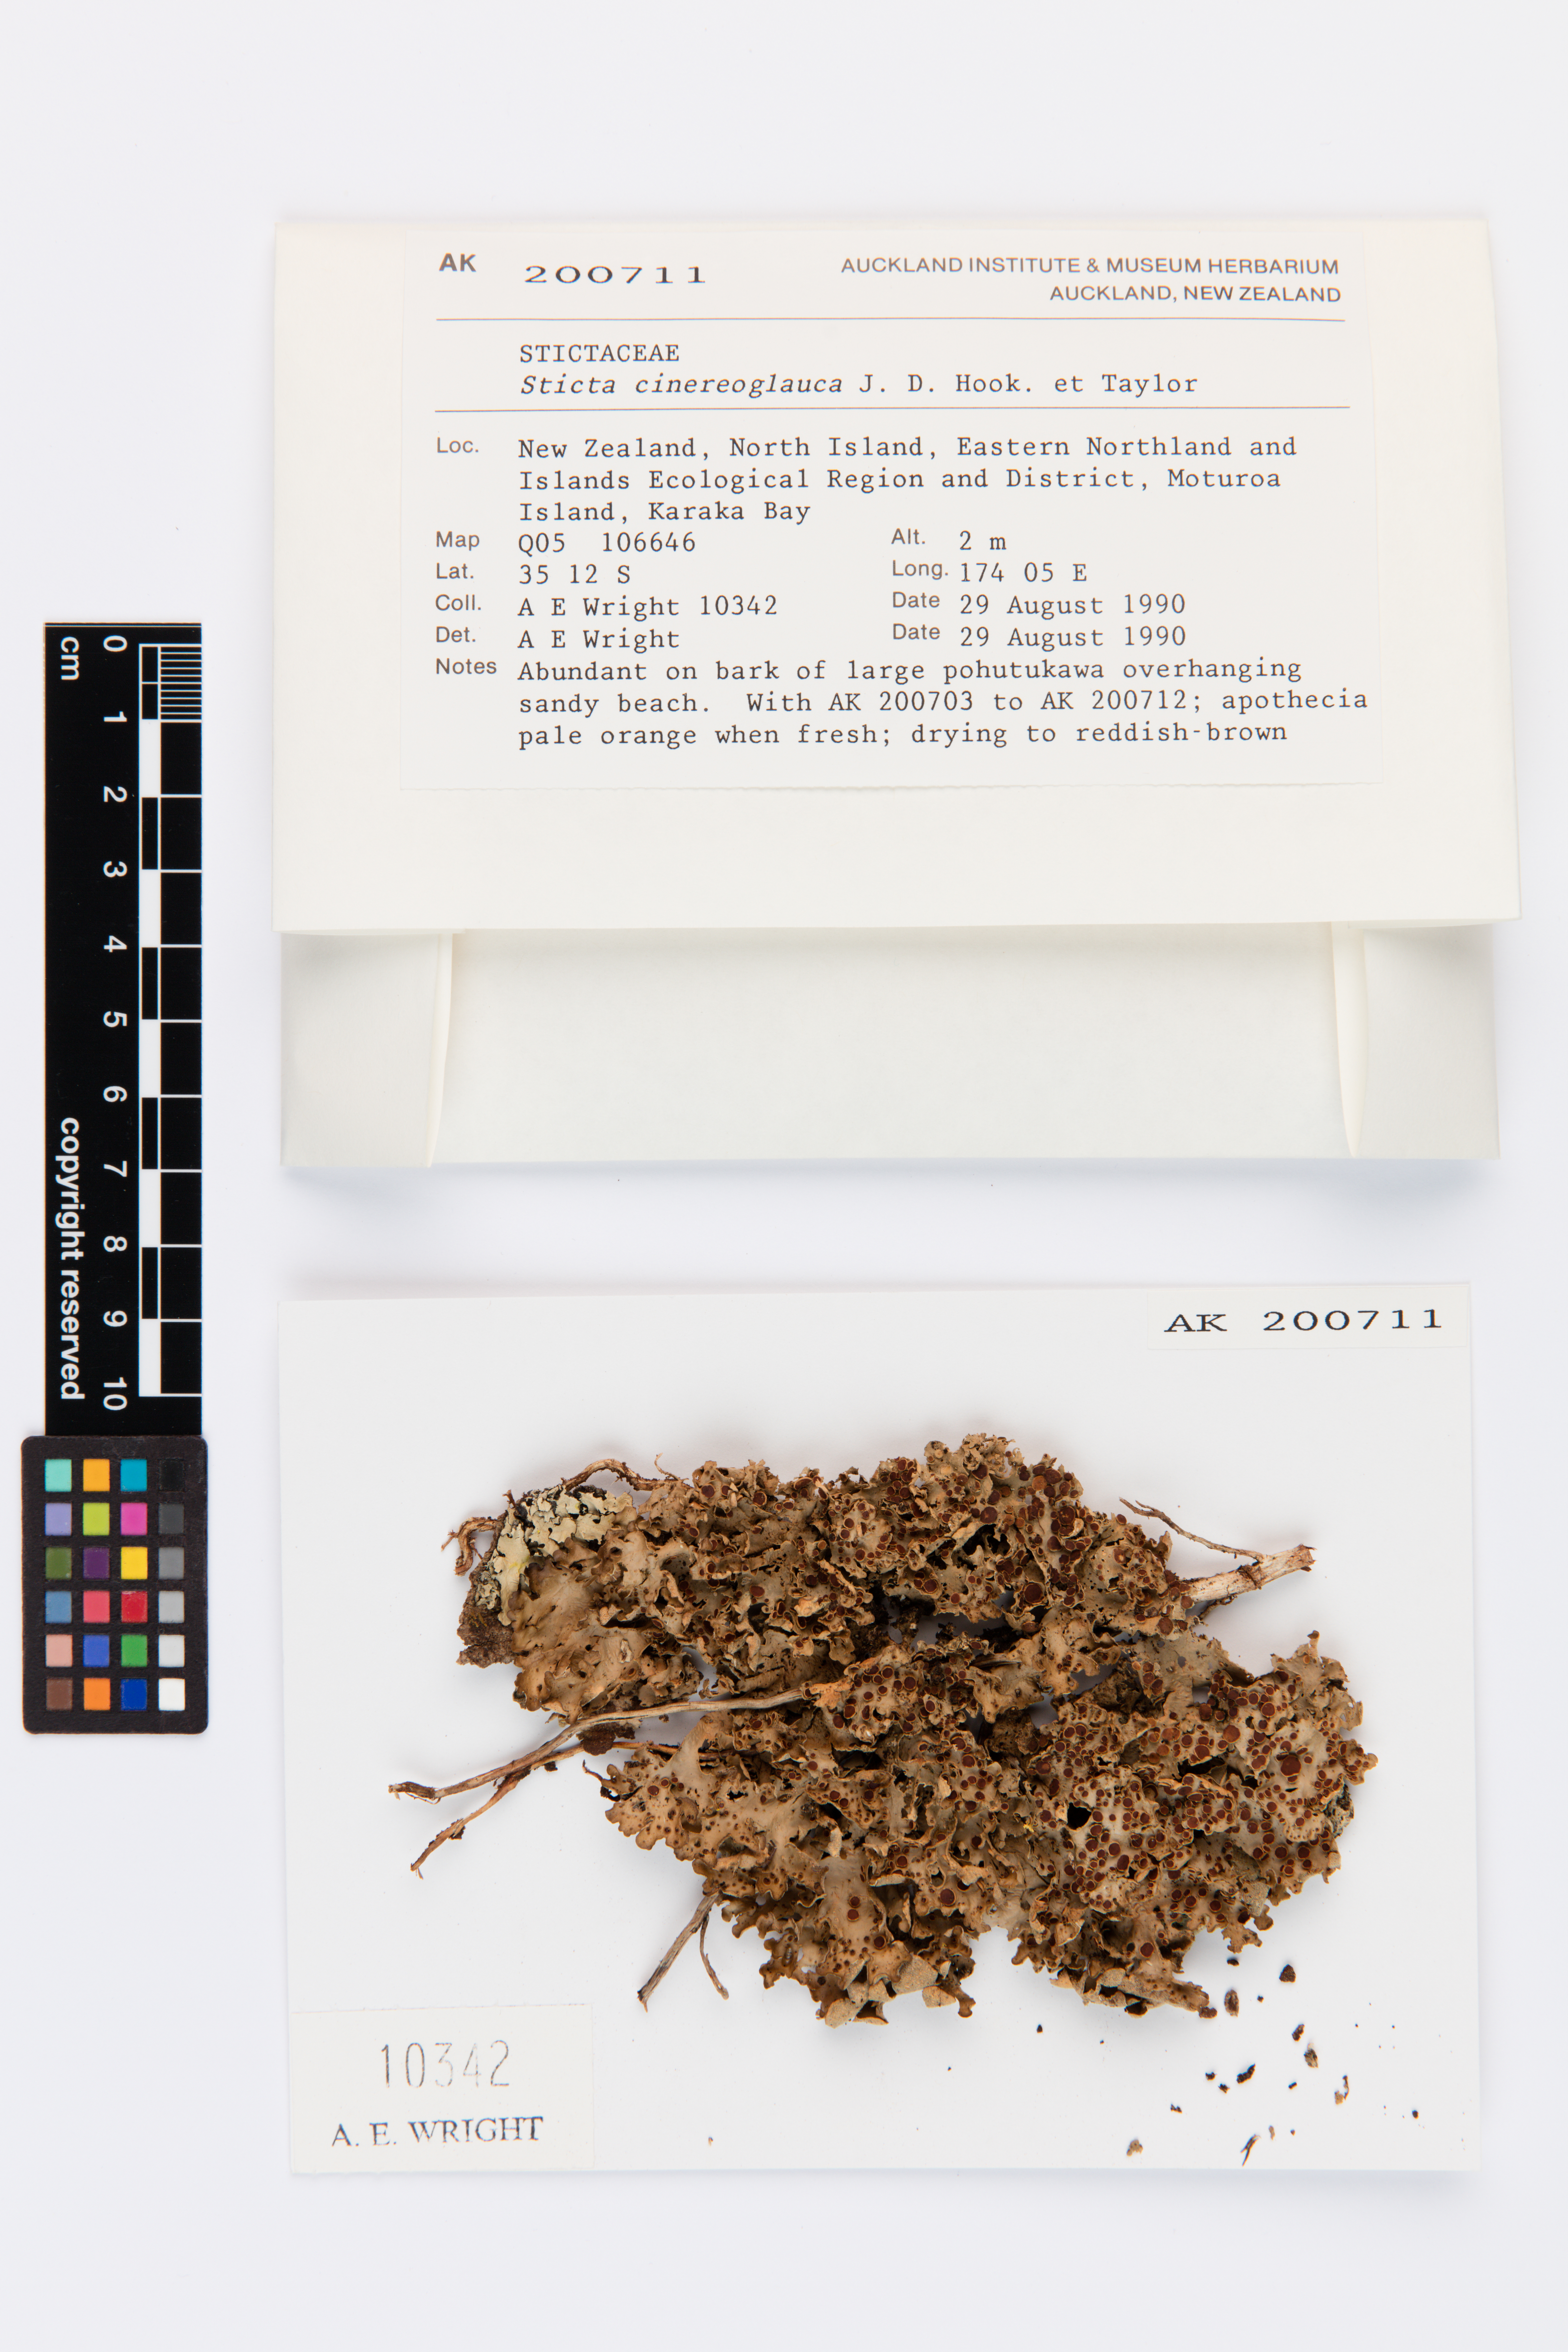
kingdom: Fungi
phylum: Ascomycota
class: Lecanoromycetes
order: Peltigerales
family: Lobariaceae
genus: Sticta
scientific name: Sticta cinereoglauca
